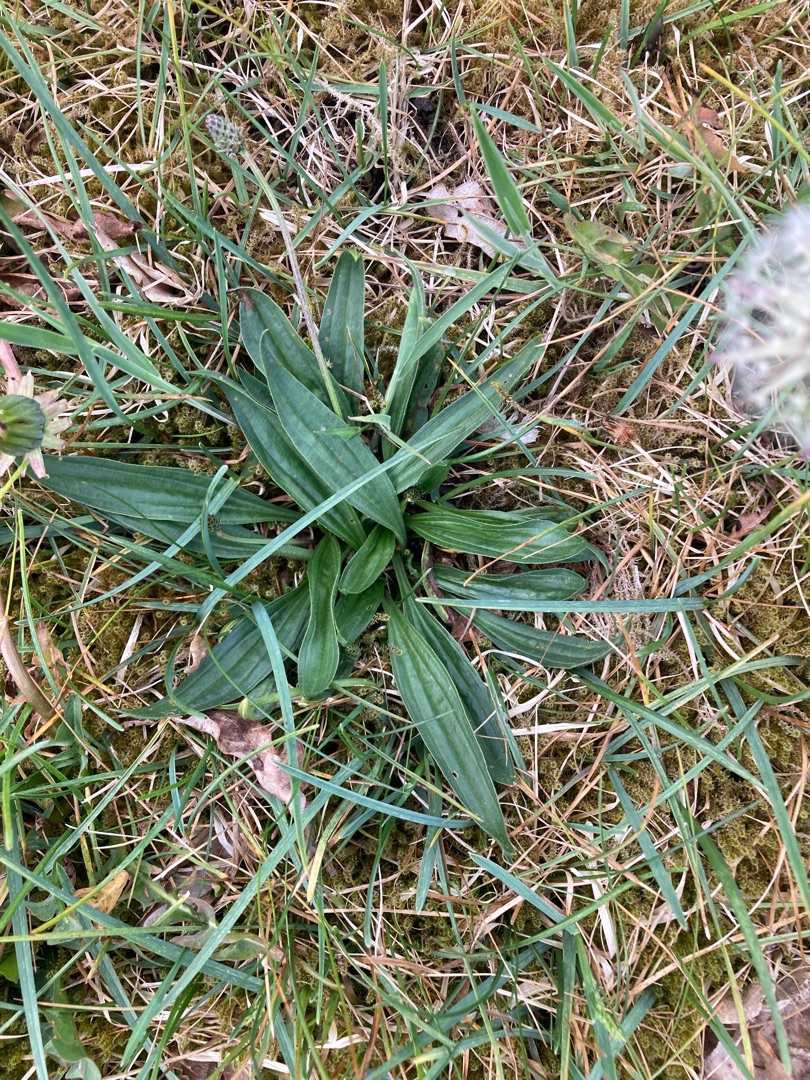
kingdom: Plantae
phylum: Tracheophyta
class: Magnoliopsida
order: Lamiales
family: Plantaginaceae
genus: Plantago
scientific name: Plantago lanceolata
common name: Lancet-vejbred
